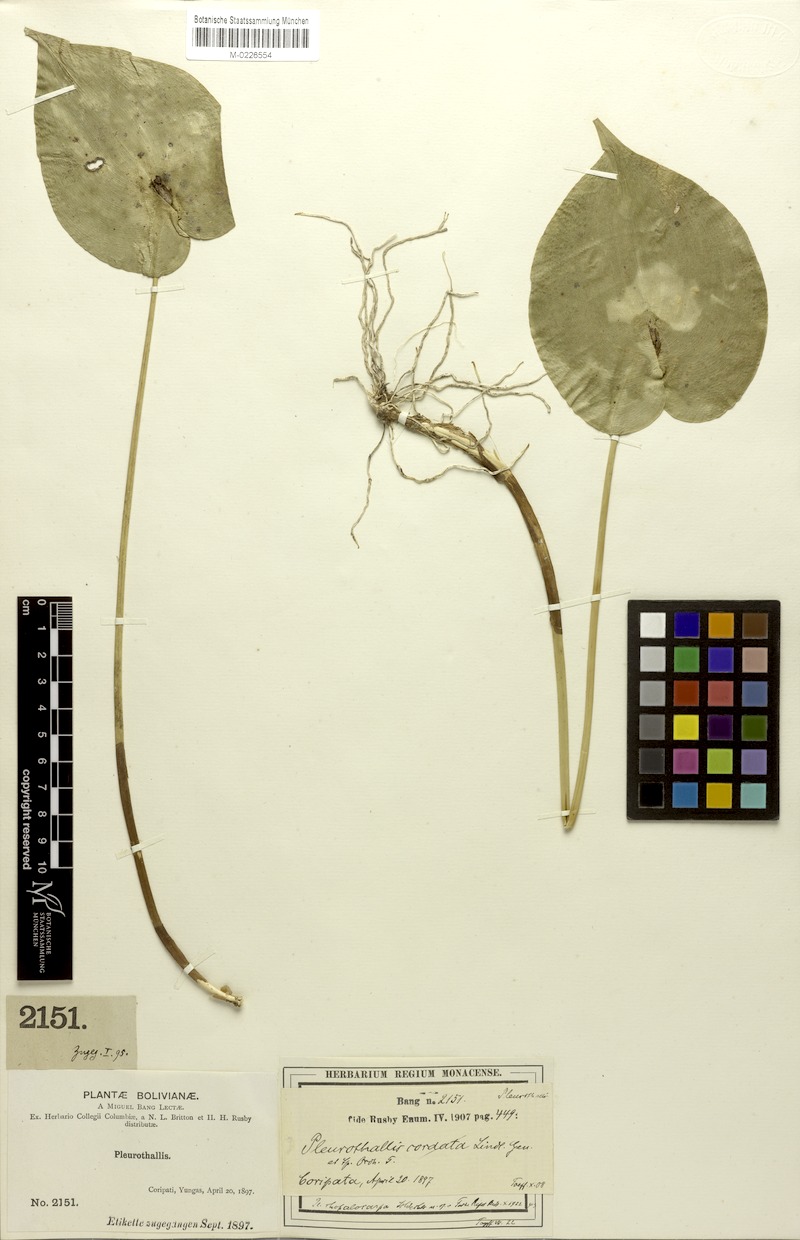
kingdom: Plantae
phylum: Tracheophyta
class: Liliopsida
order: Asparagales
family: Orchidaceae
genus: Pleurothallis
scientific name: Pleurothallis cordata
